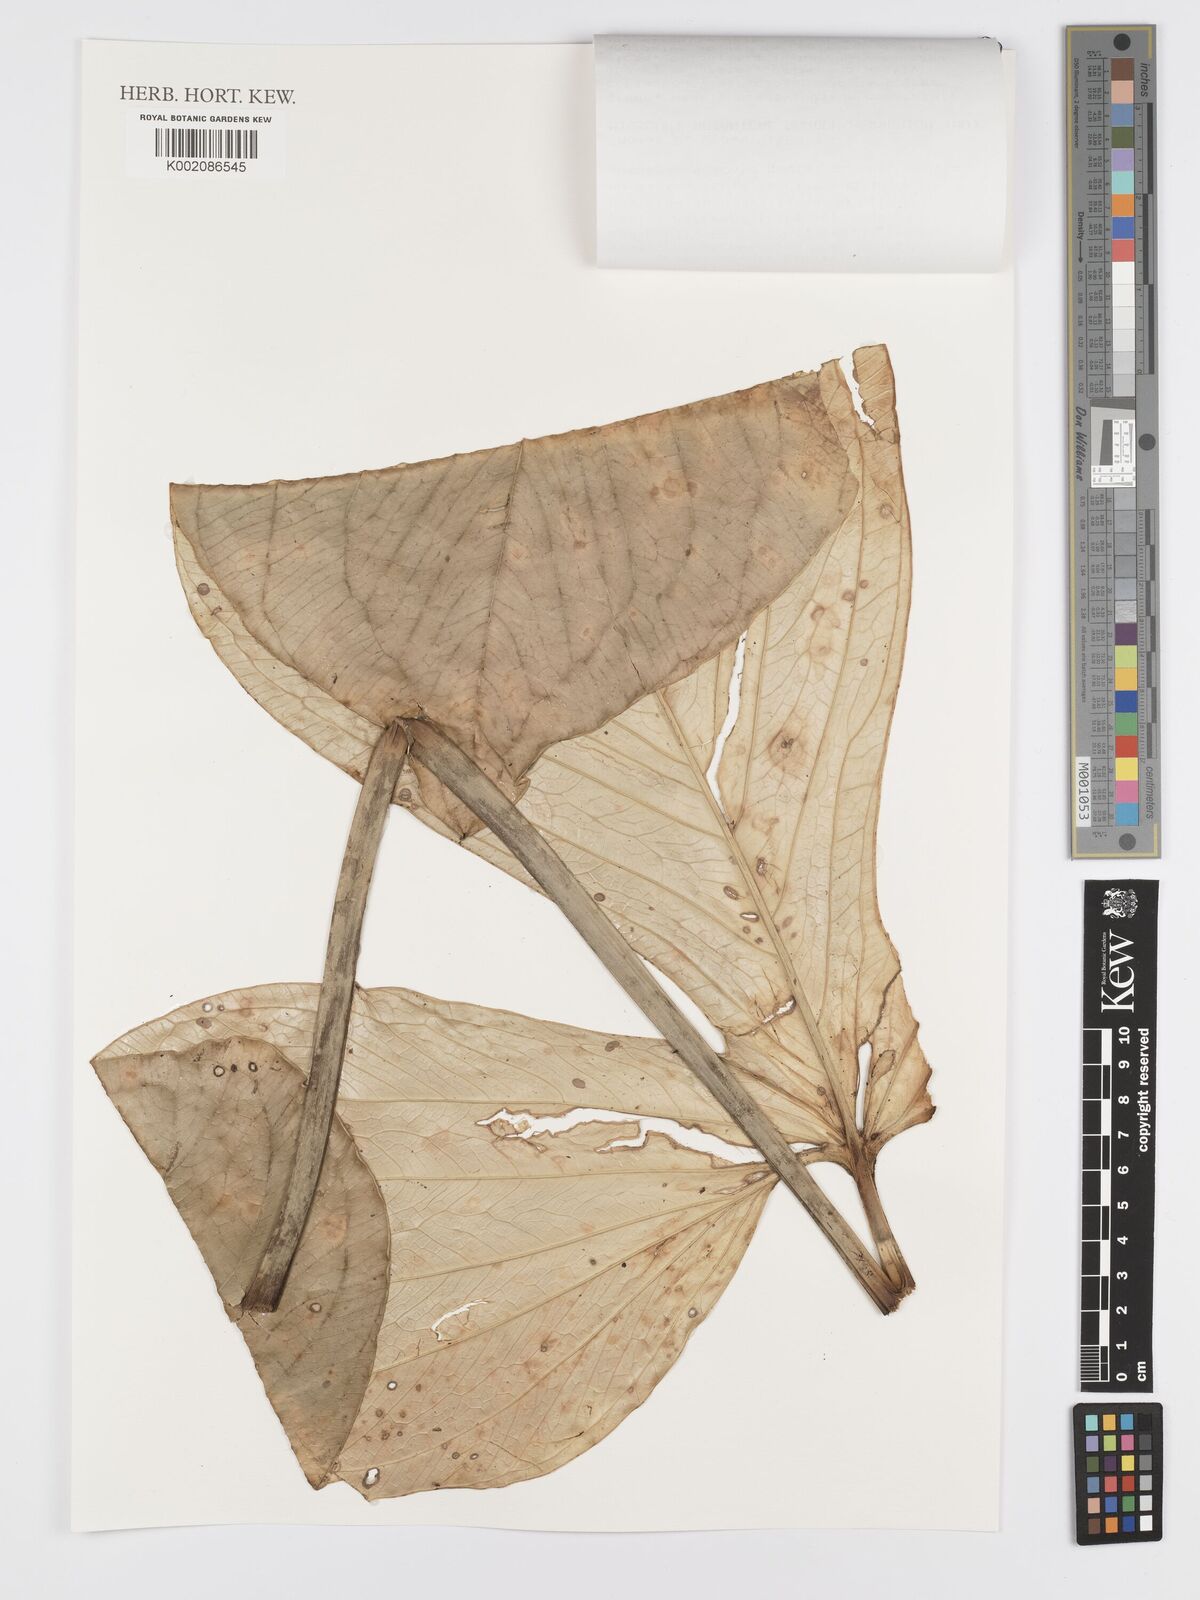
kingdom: Plantae
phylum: Tracheophyta
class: Liliopsida
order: Alismatales
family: Araceae
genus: Anthurium
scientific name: Anthurium moronense
